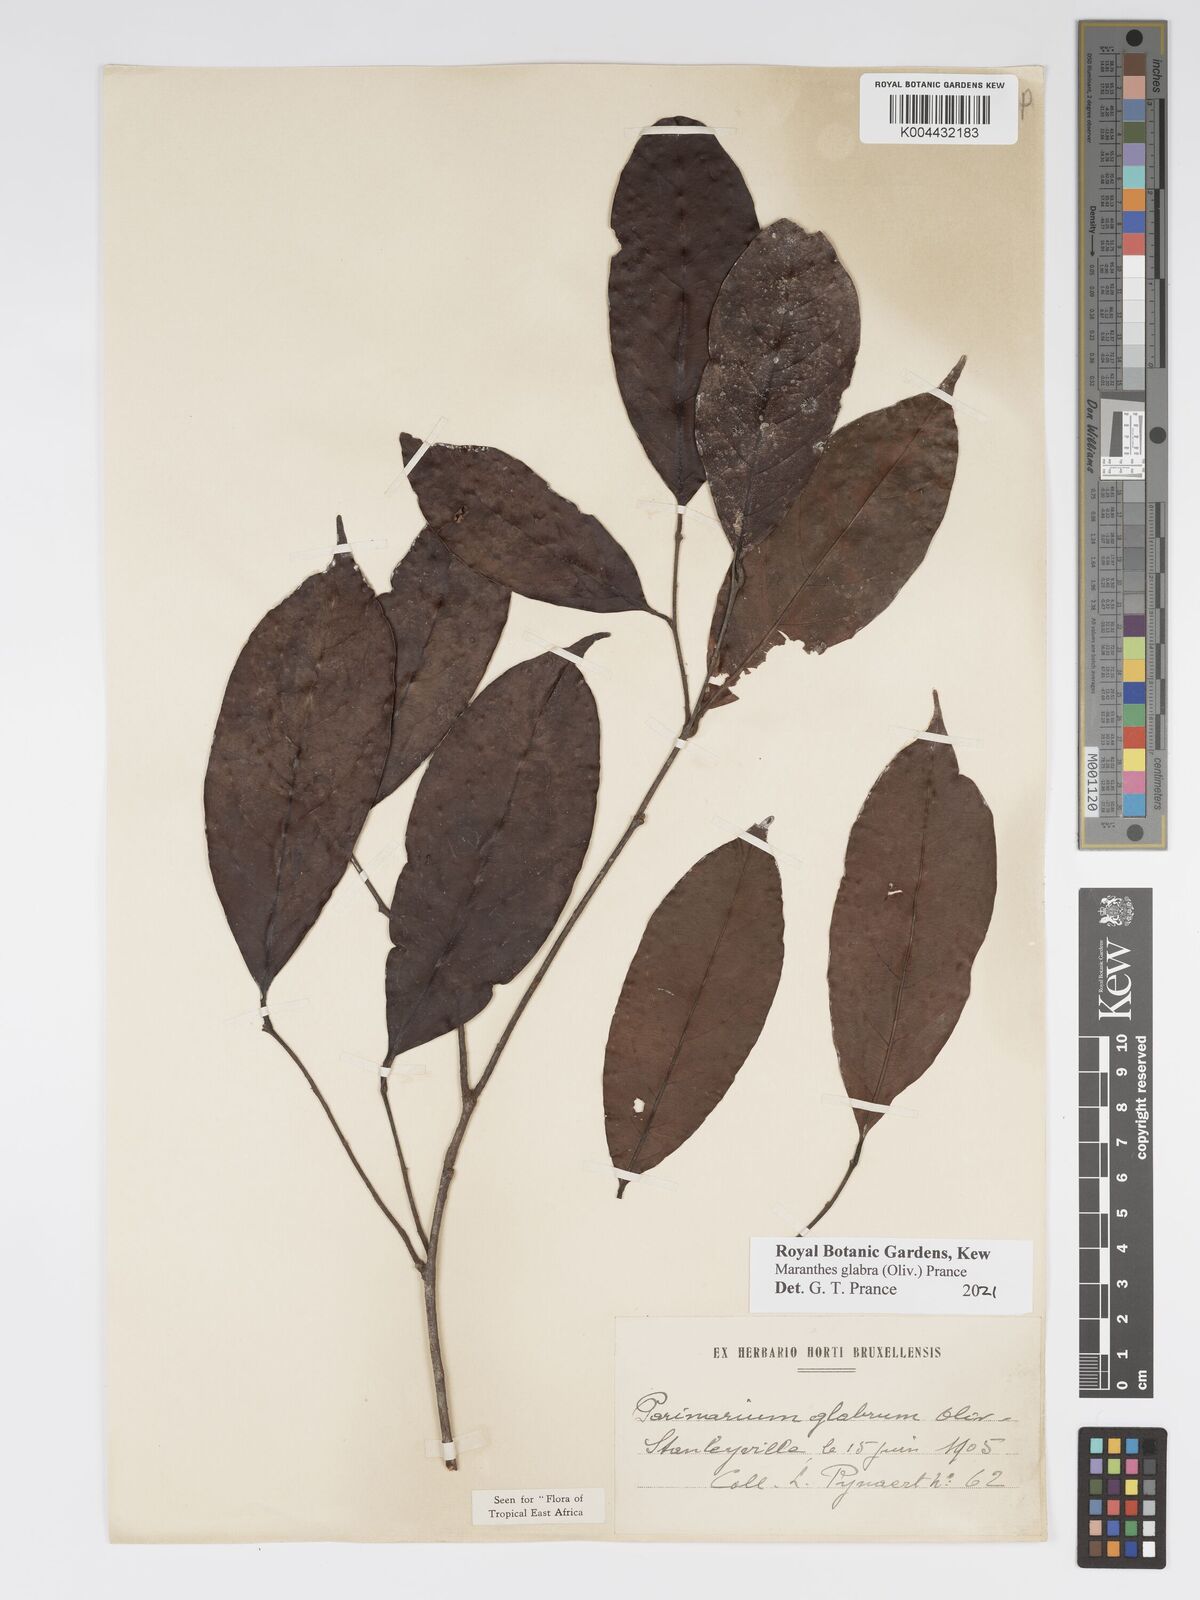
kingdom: Plantae
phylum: Tracheophyta
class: Magnoliopsida
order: Malpighiales
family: Chrysobalanaceae
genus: Maranthes
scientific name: Maranthes glabra
